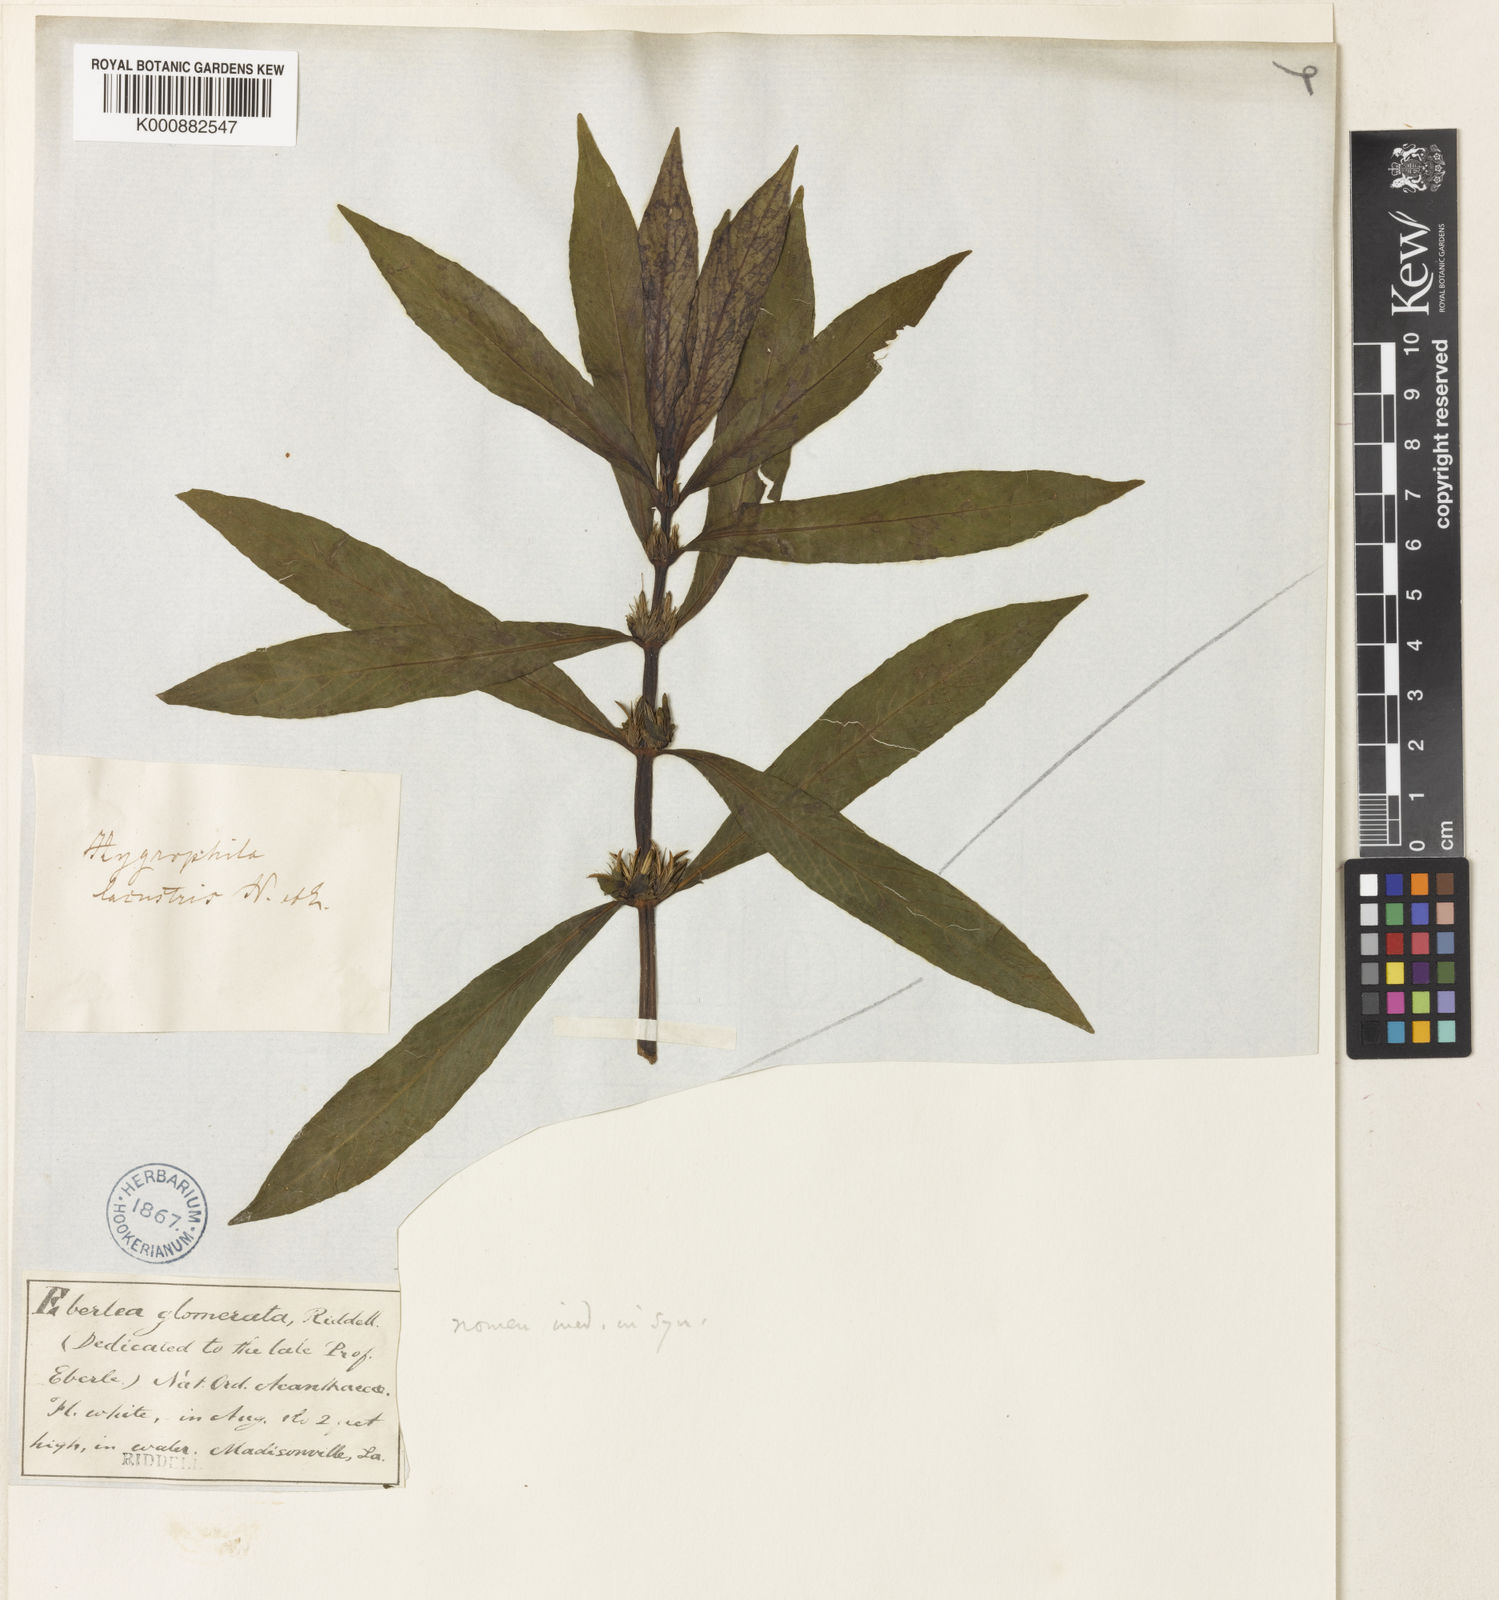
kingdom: Plantae
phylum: Tracheophyta
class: Magnoliopsida
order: Lamiales
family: Acanthaceae
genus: Hygrophila
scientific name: Hygrophila costata
